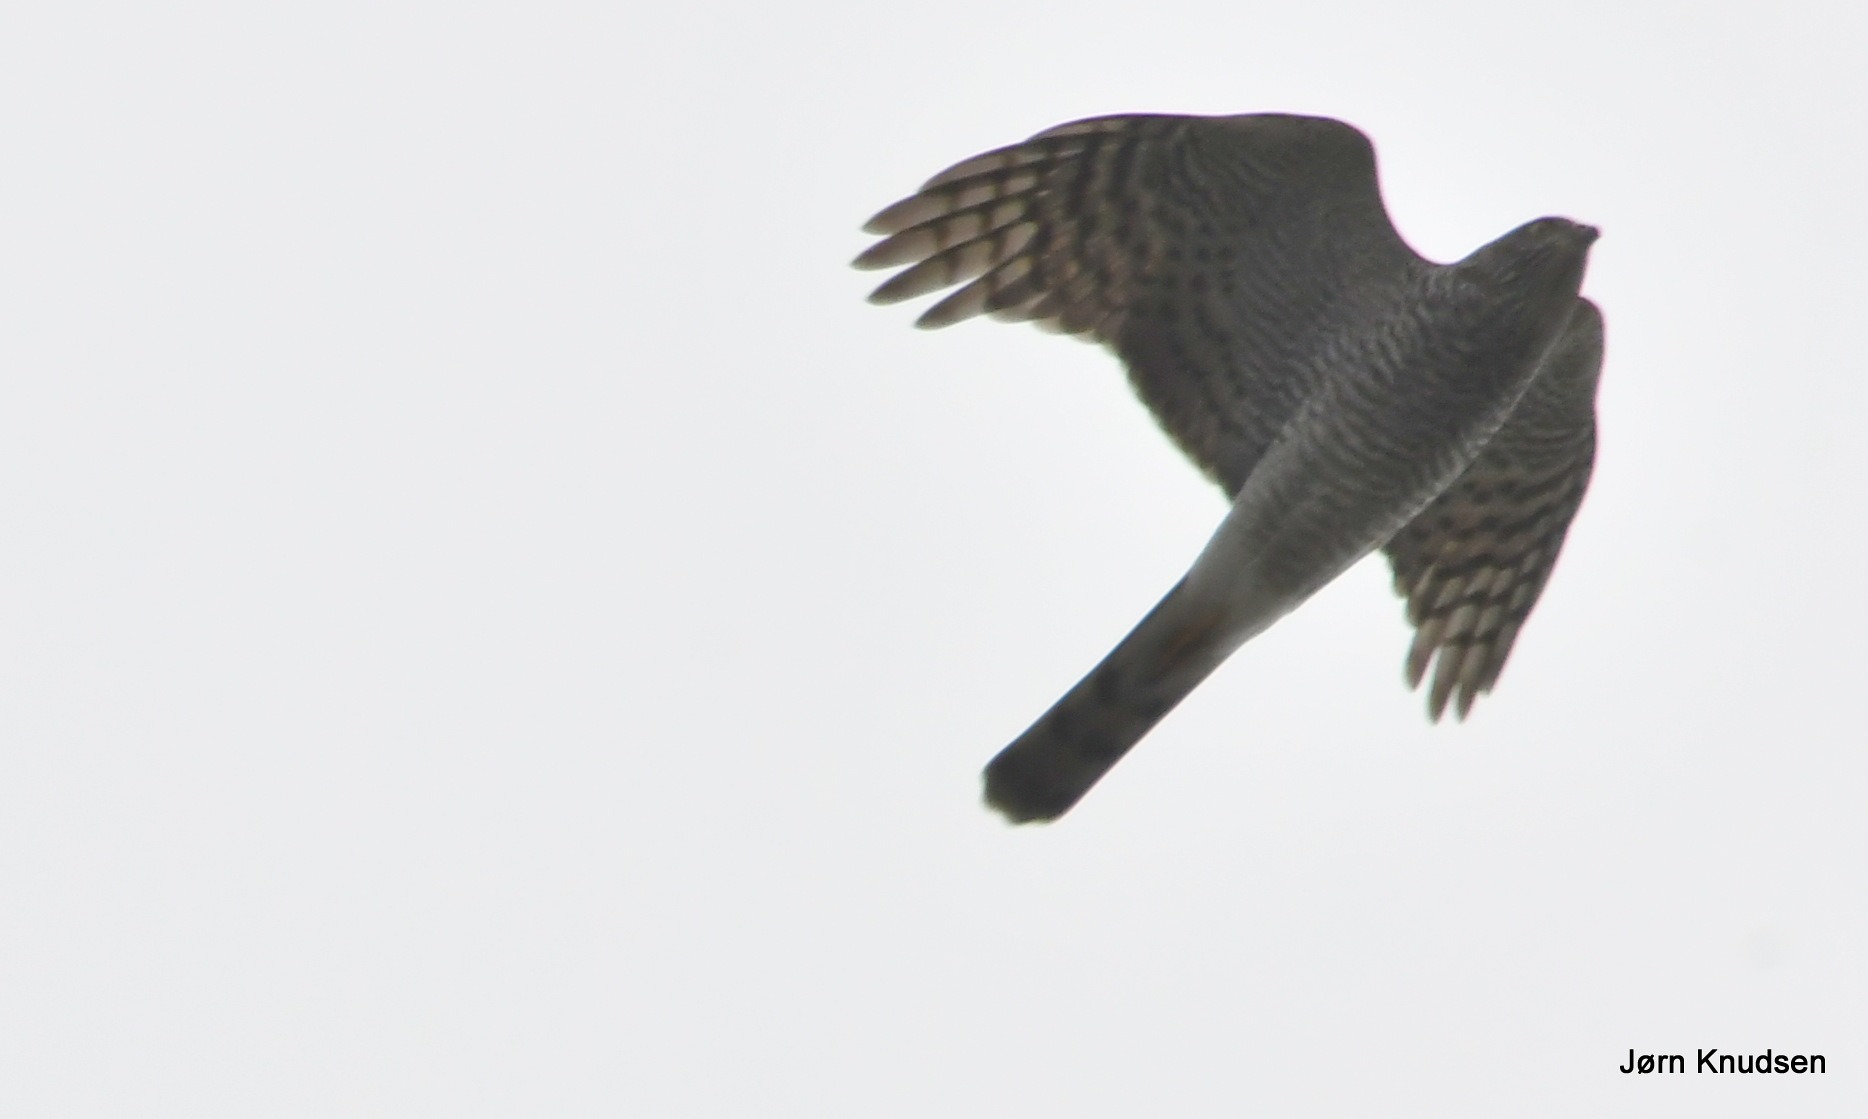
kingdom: Animalia
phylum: Chordata
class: Aves
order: Accipitriformes
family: Accipitridae
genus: Accipiter
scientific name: Accipiter nisus
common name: Spurvehøg
